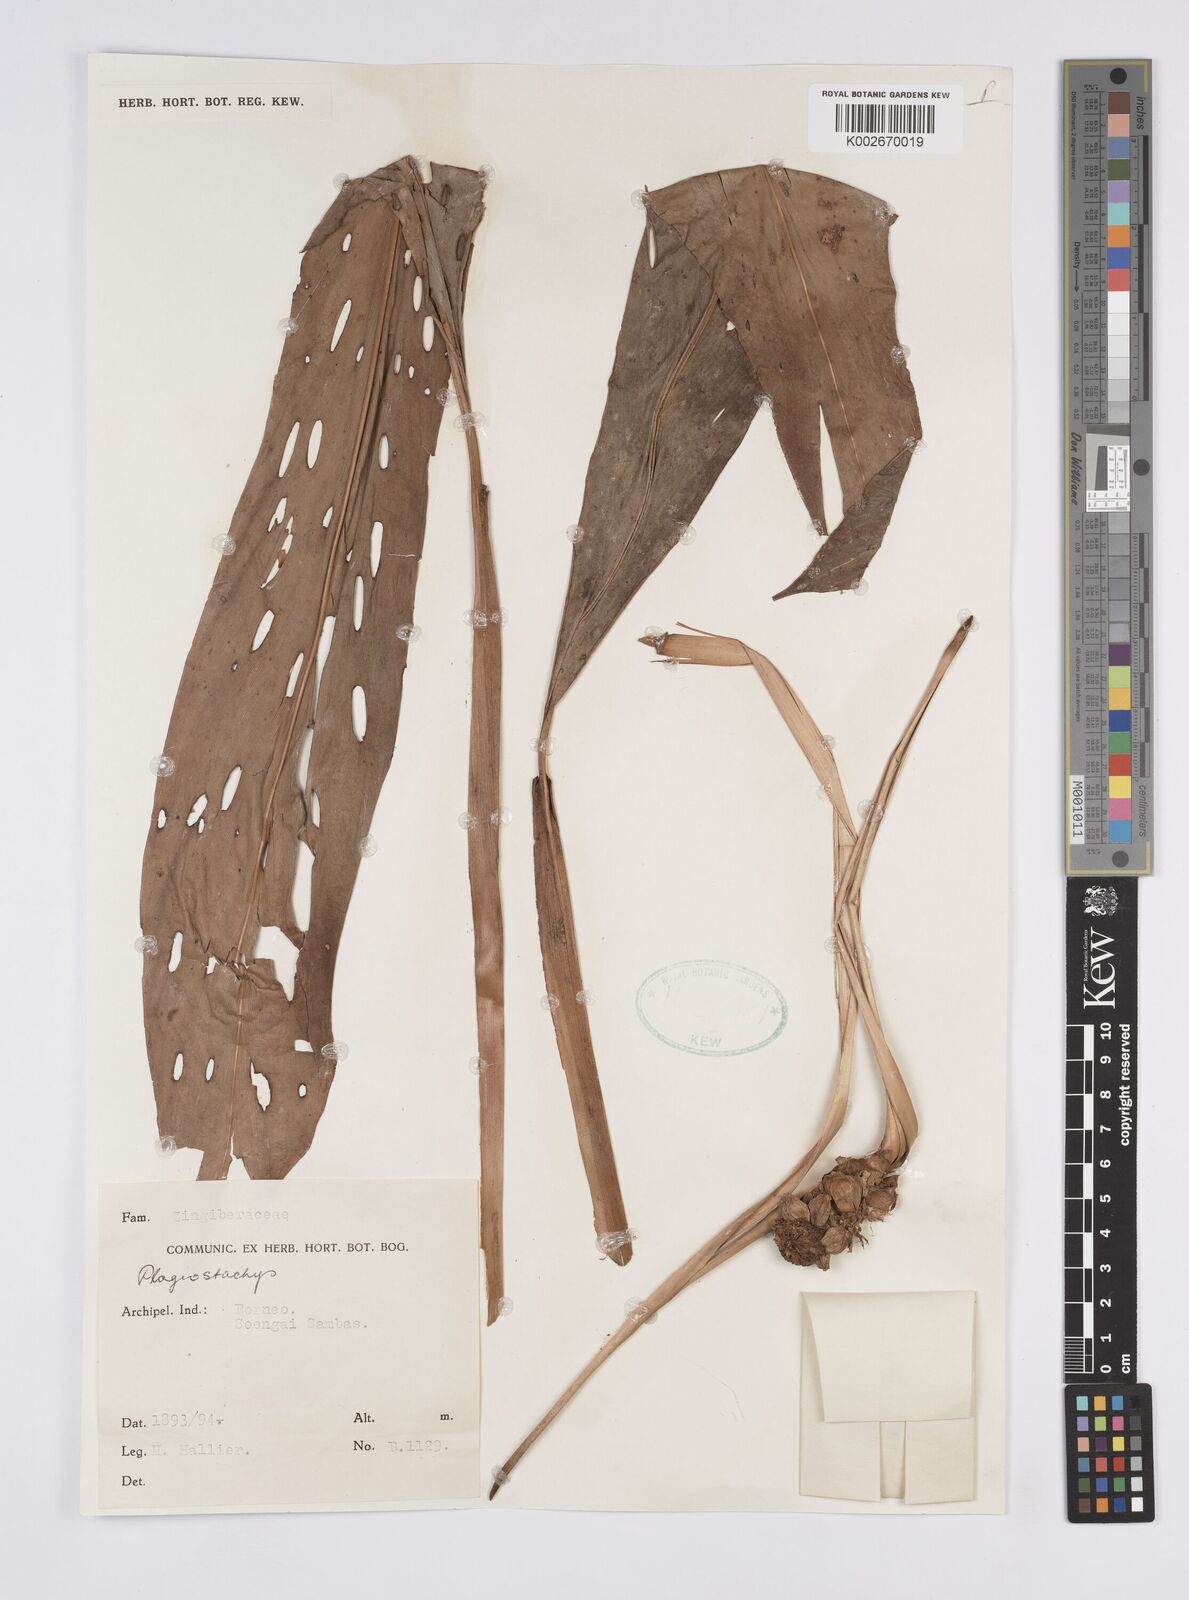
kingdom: Plantae
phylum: Tracheophyta
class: Liliopsida
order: Zingiberales
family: Zingiberaceae
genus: Plagiostachys
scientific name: Plagiostachys
